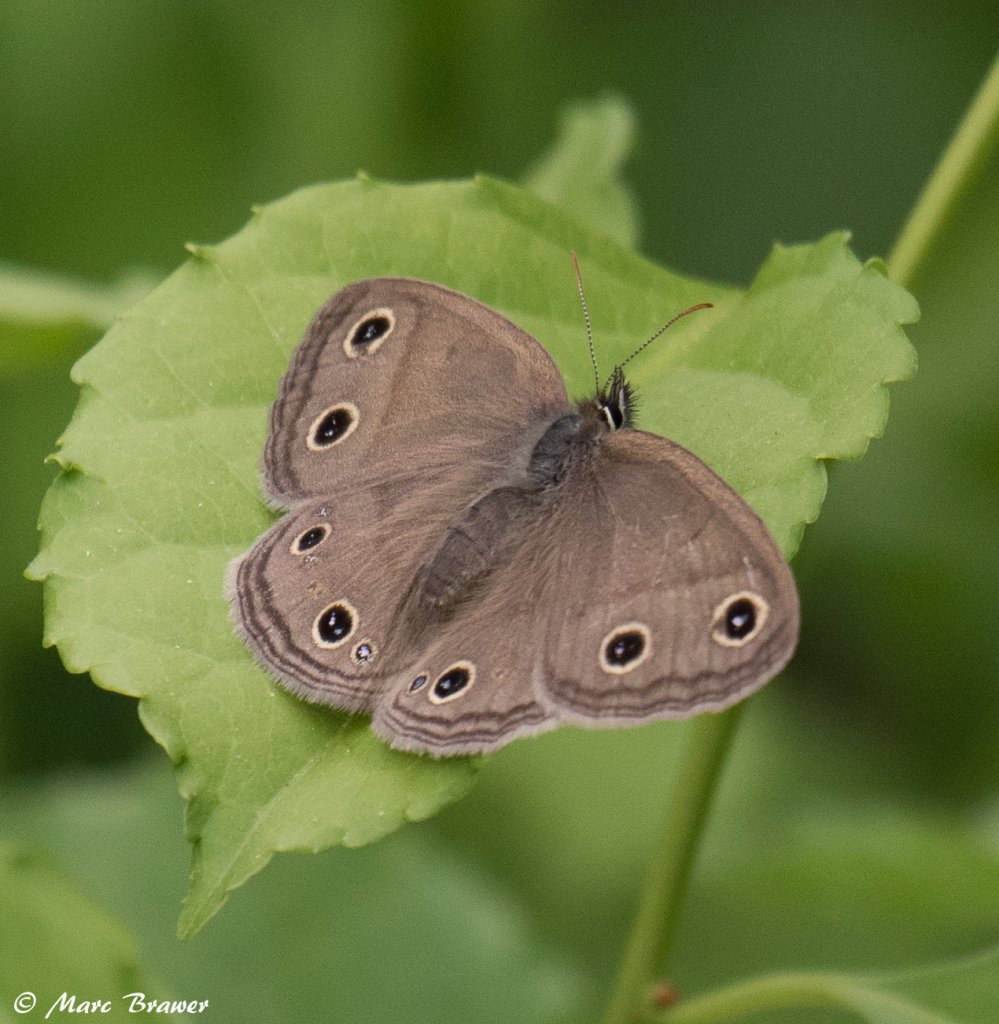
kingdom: Animalia
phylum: Arthropoda
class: Insecta
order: Lepidoptera
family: Nymphalidae
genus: Euptychia
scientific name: Euptychia cymela
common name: Little Wood Satyr
